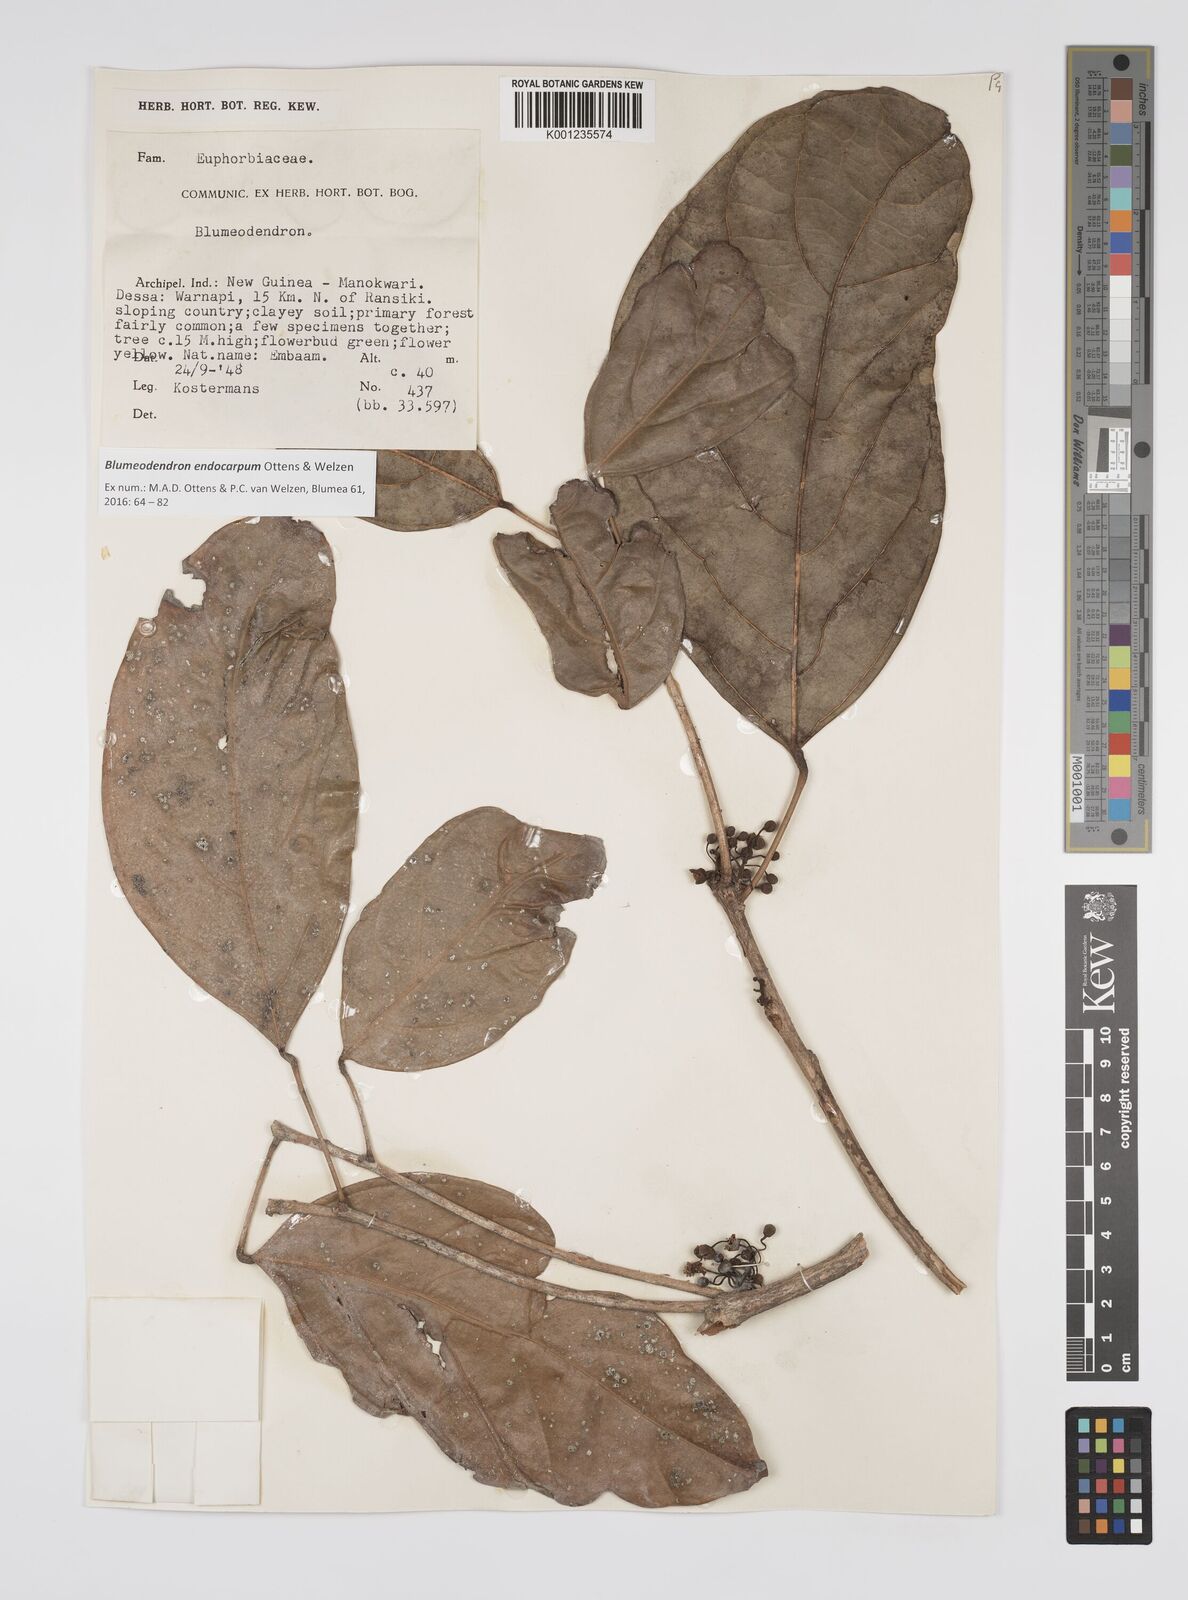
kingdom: Plantae
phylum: Tracheophyta
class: Magnoliopsida
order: Malpighiales
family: Euphorbiaceae
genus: Blumeodendron
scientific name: Blumeodendron
